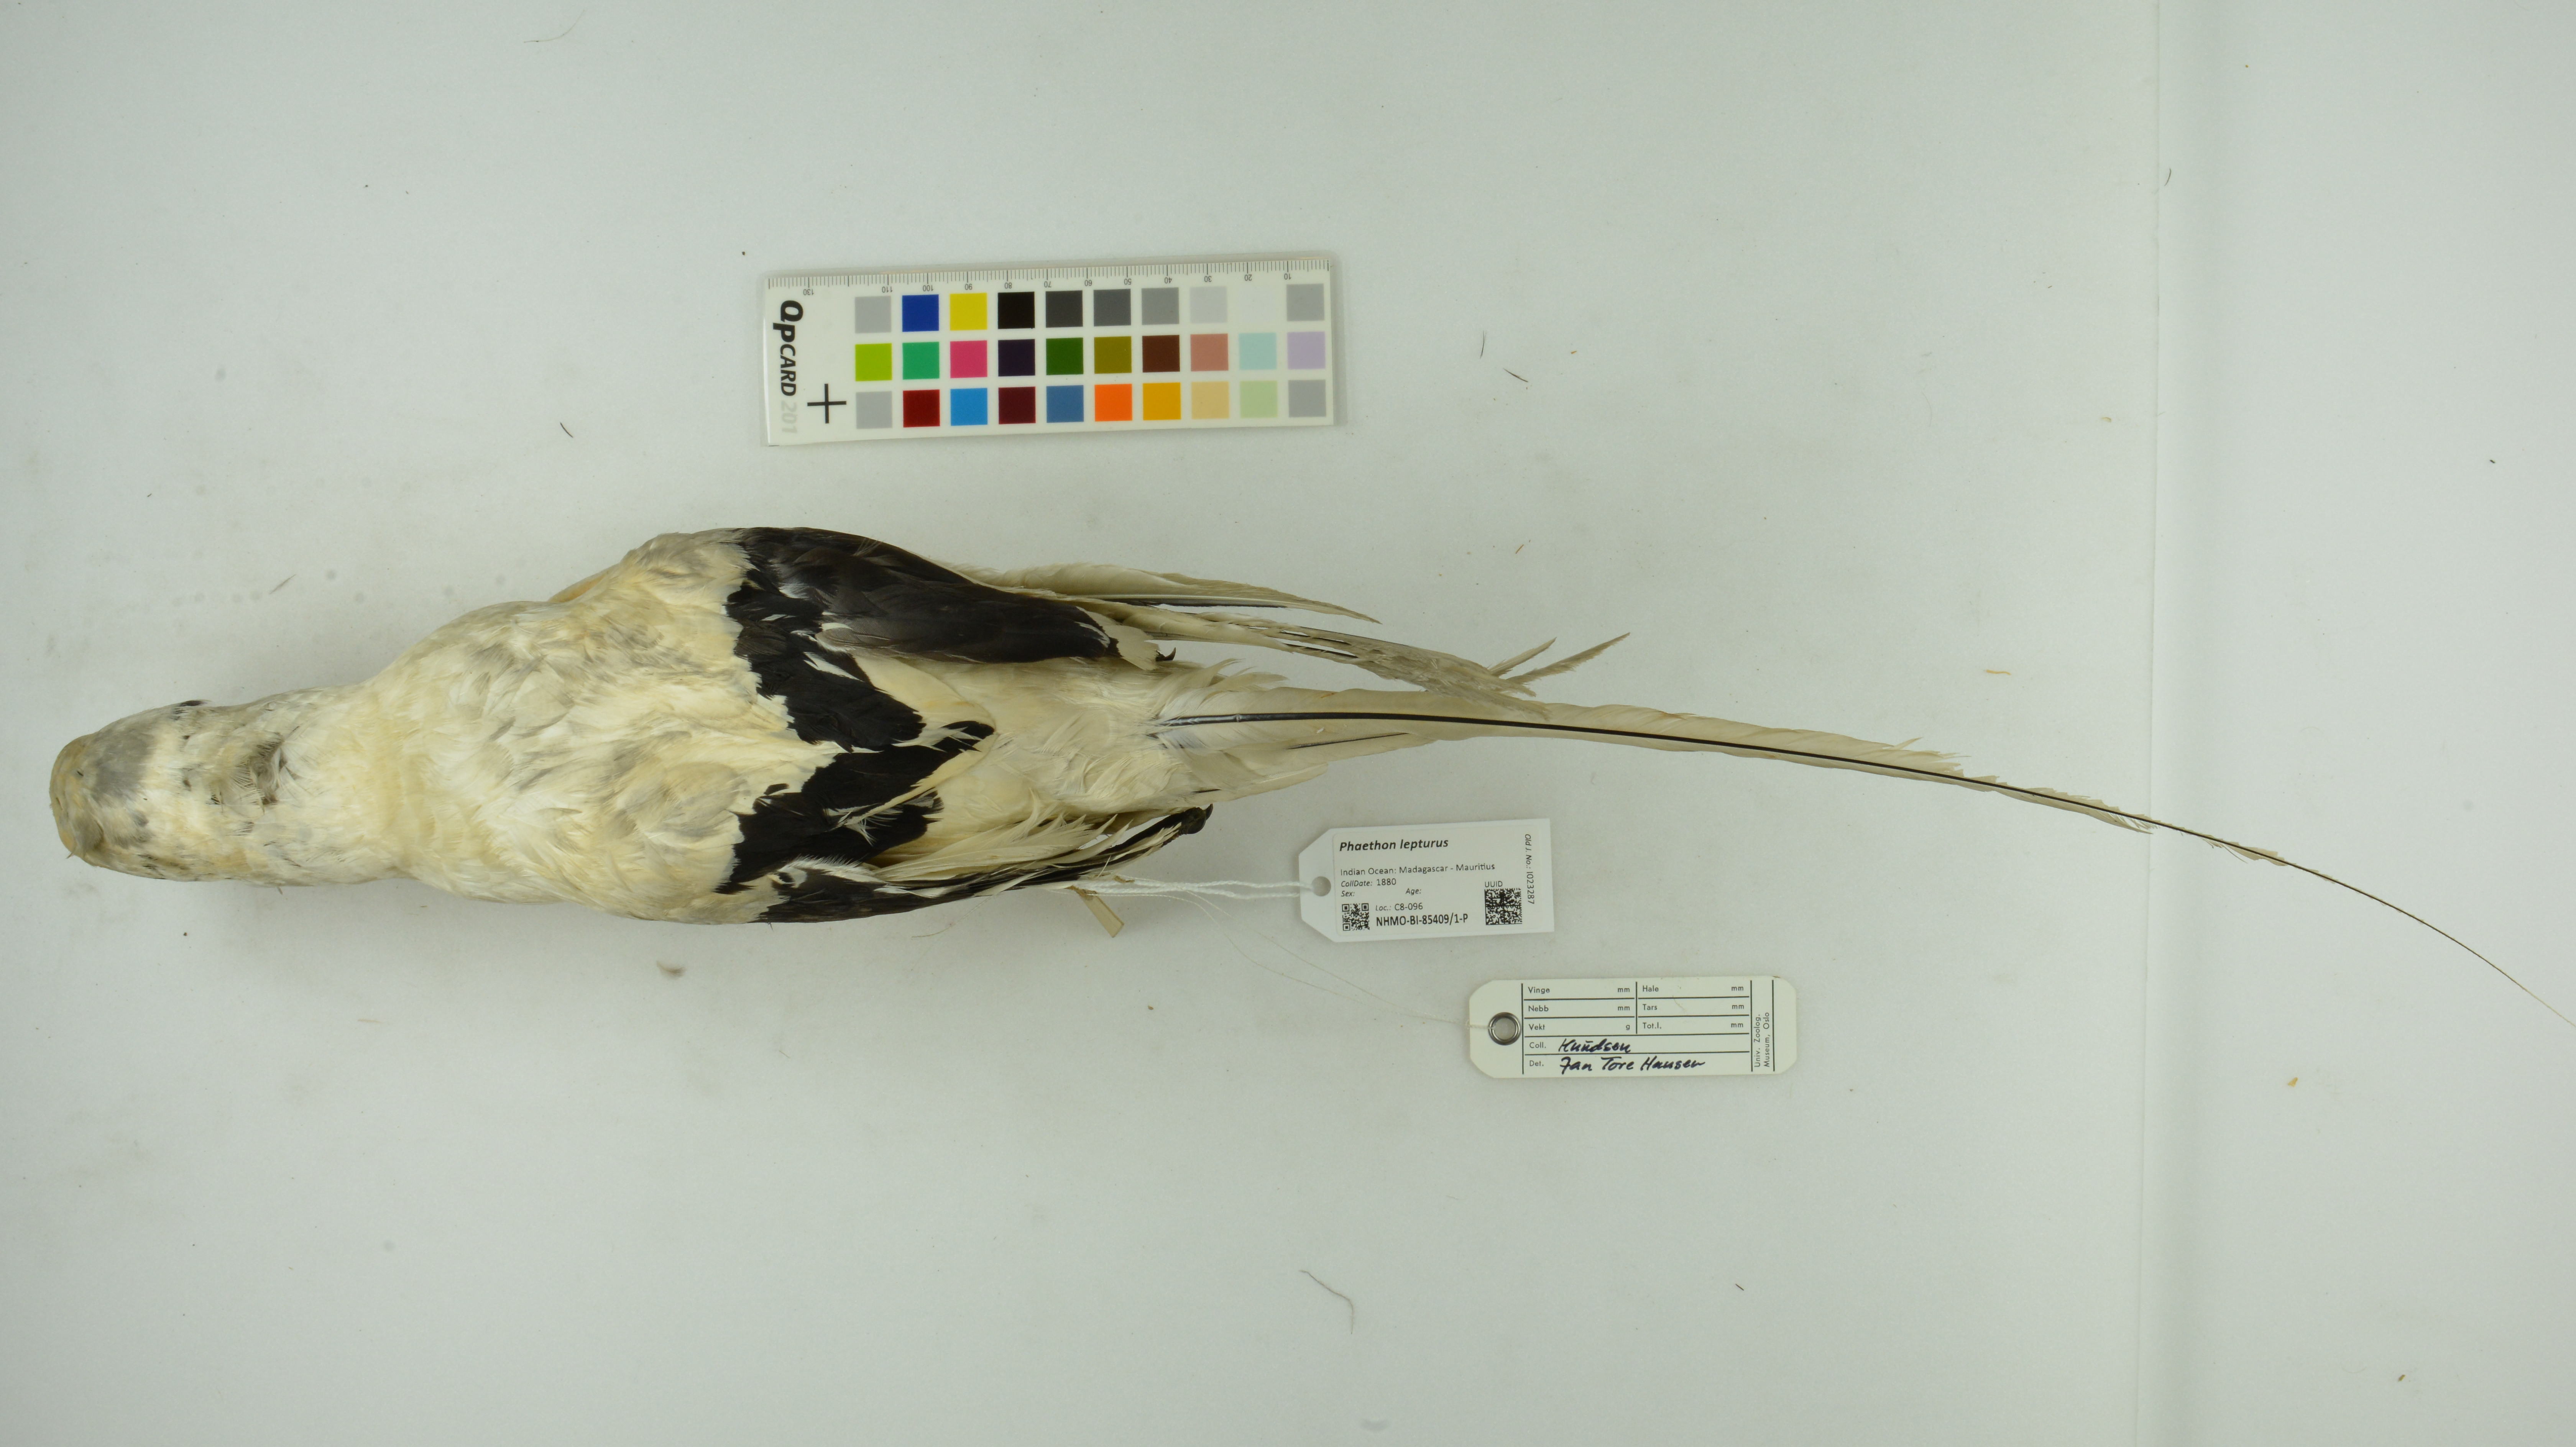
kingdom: Animalia
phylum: Chordata
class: Aves
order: Phaethontiformes
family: Phaethontidae
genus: Phaethon
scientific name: Phaethon lepturus
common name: White-tailed tropicbird
